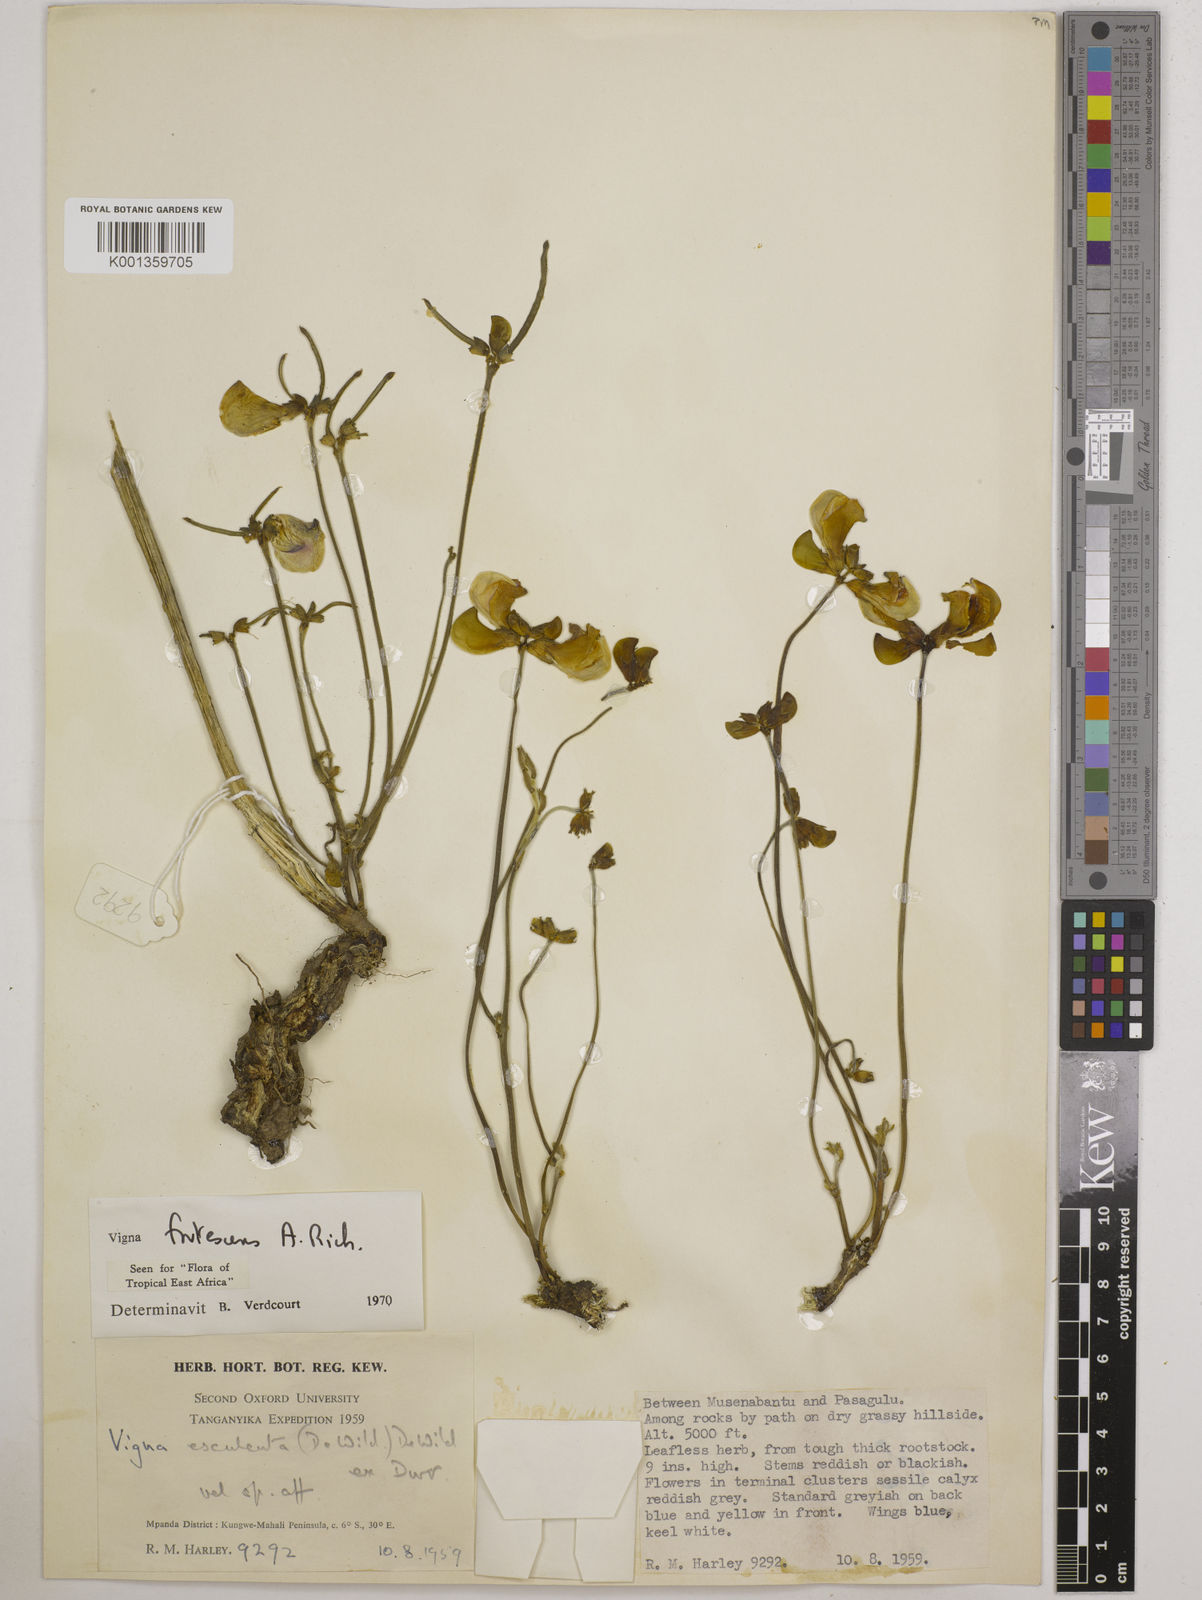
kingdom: Plantae
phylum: Tracheophyta
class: Magnoliopsida
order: Fabales
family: Fabaceae
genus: Vigna
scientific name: Vigna frutescens
